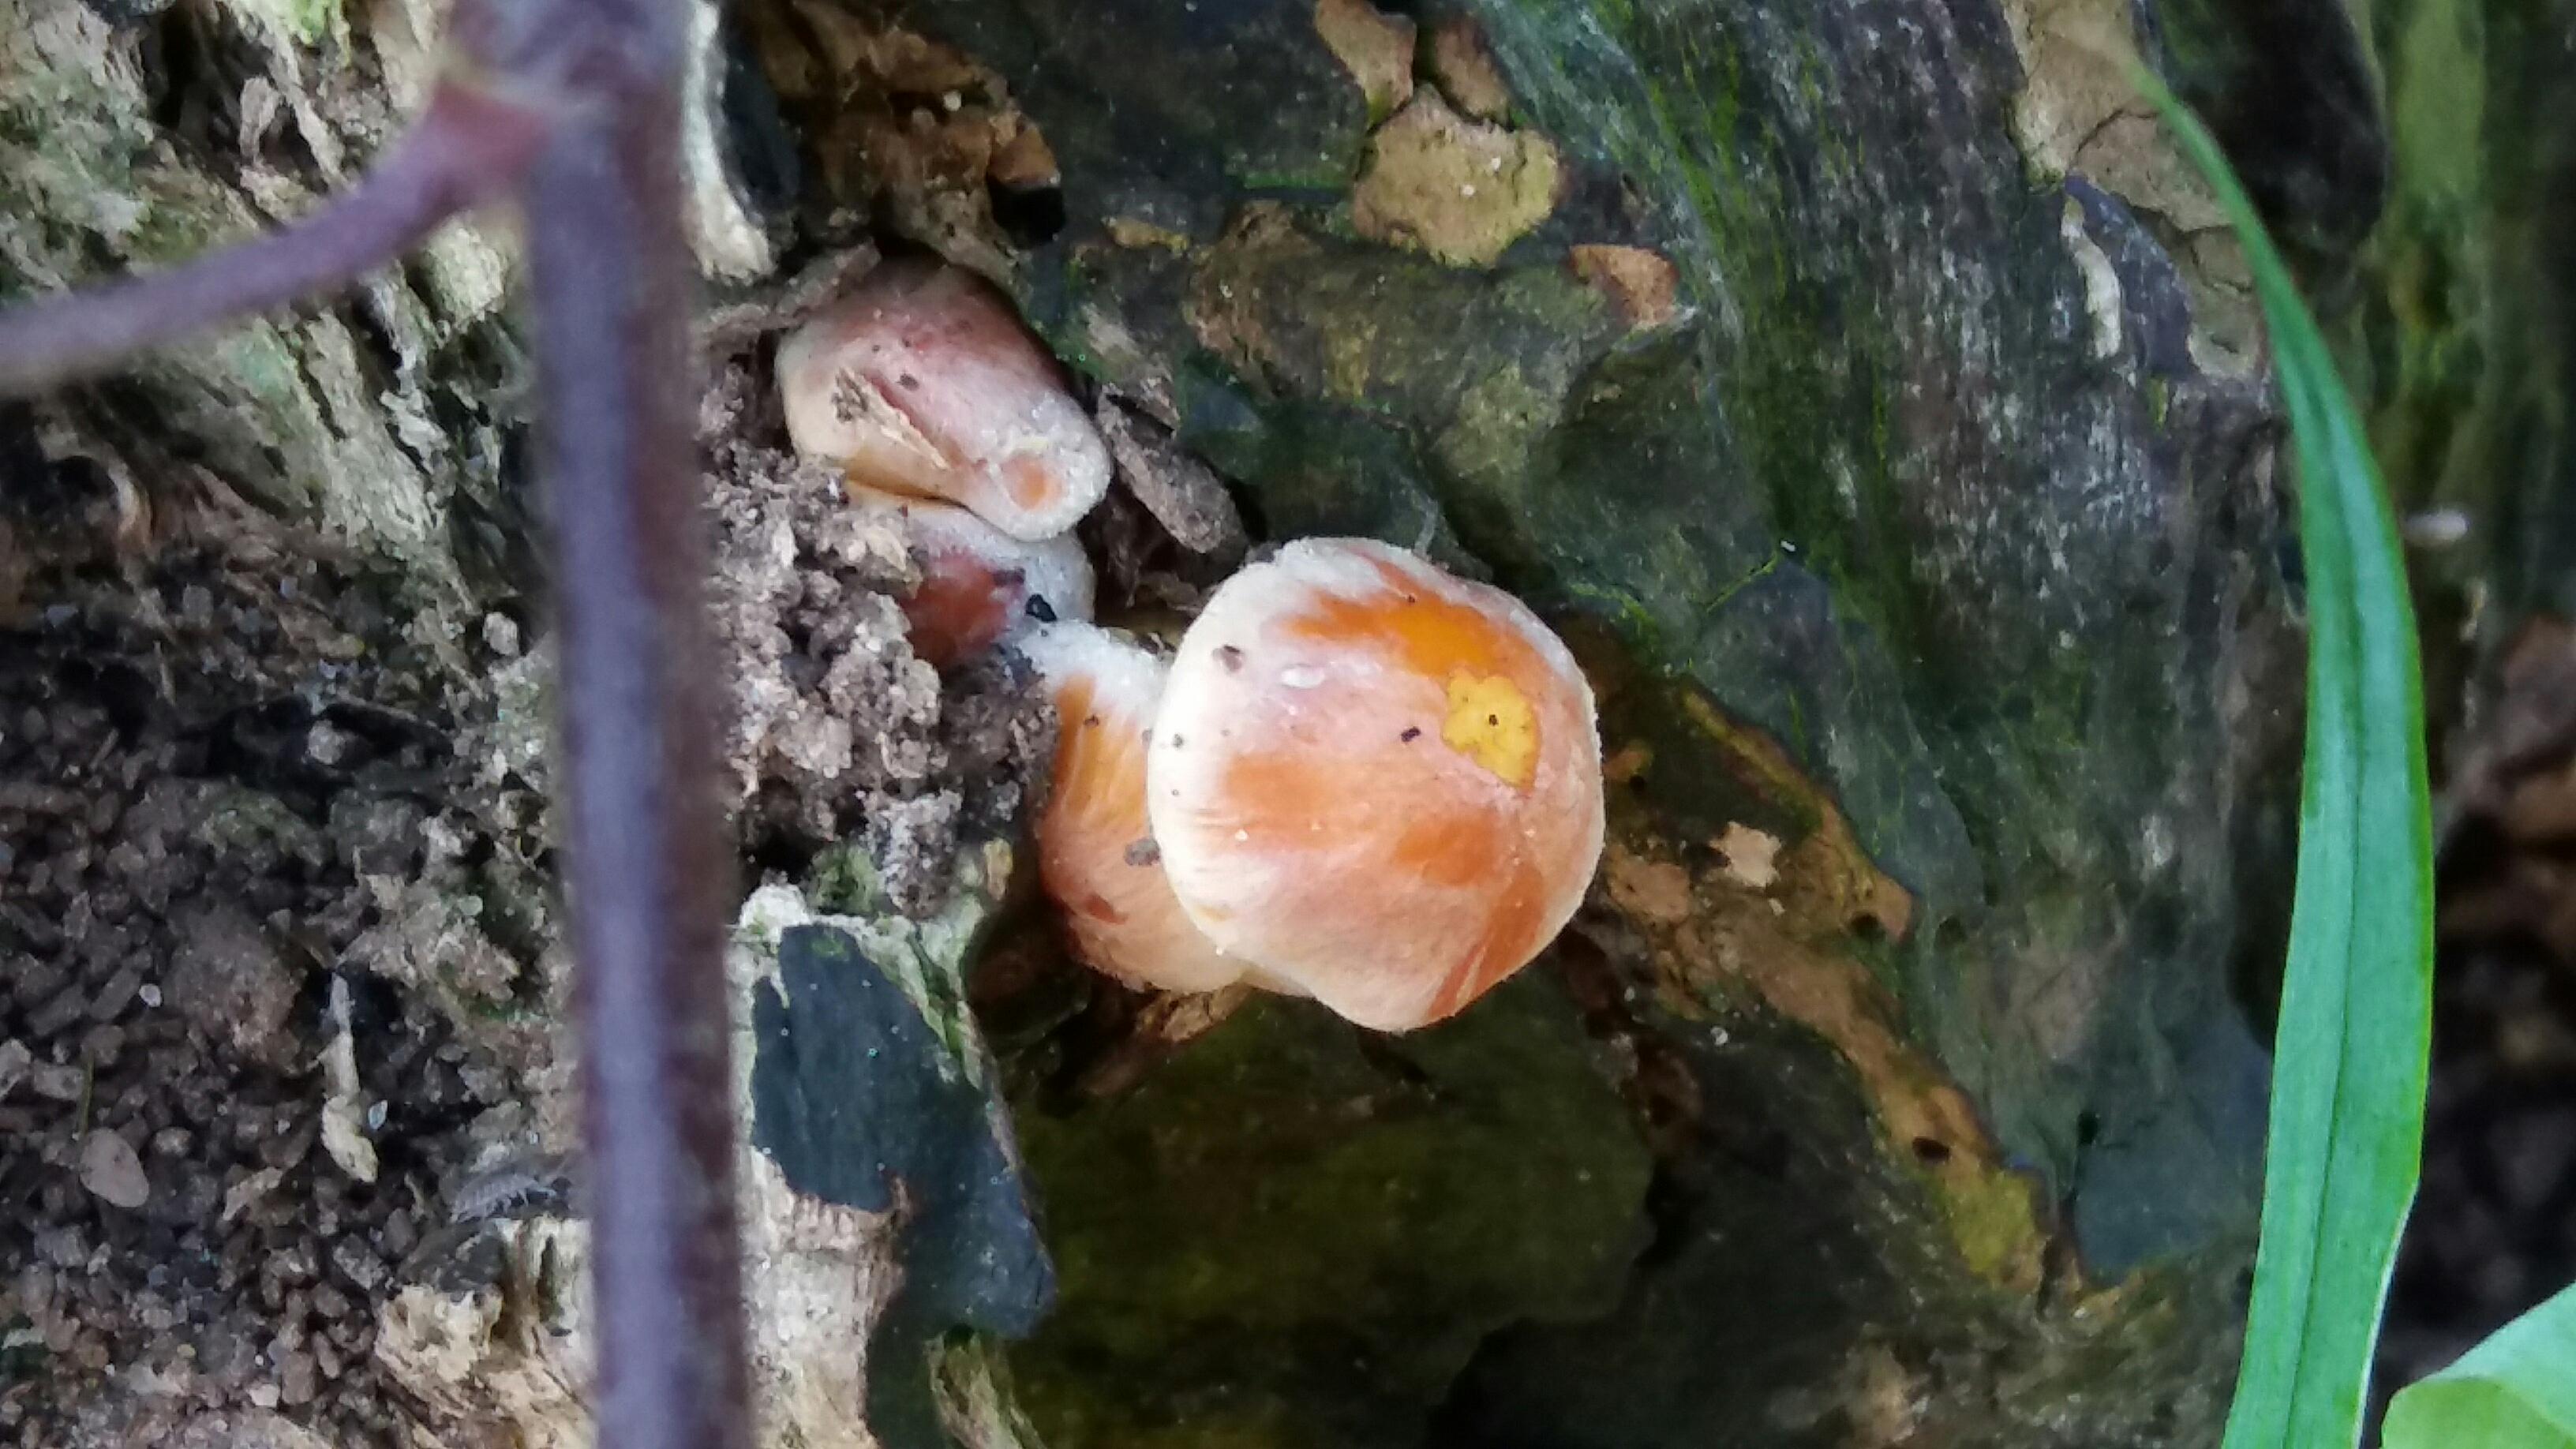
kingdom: Fungi
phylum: Basidiomycota
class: Agaricomycetes
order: Agaricales
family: Strophariaceae
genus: Hypholoma
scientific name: Hypholoma fasciculare
